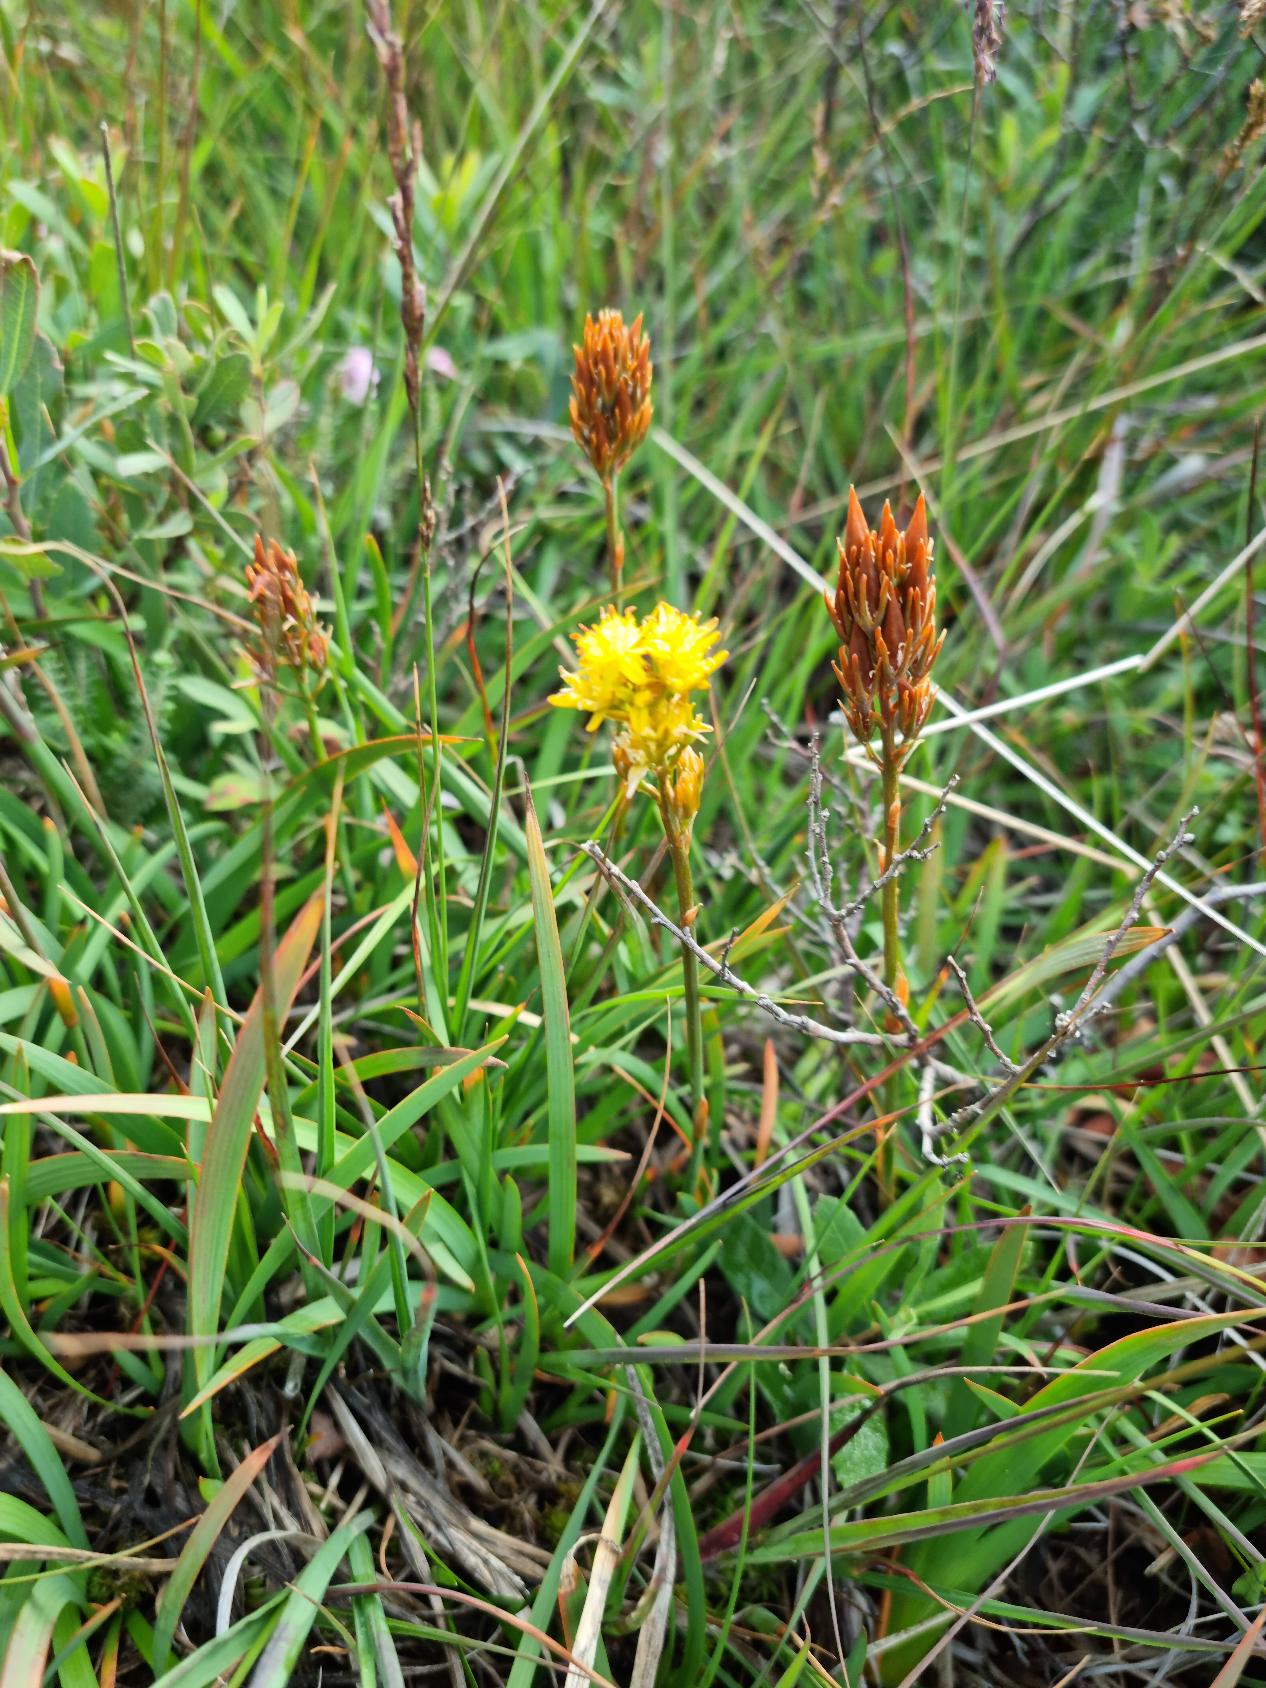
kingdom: Plantae
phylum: Tracheophyta
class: Liliopsida
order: Dioscoreales
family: Nartheciaceae
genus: Narthecium
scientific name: Narthecium ossifragum
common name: Benbræk
